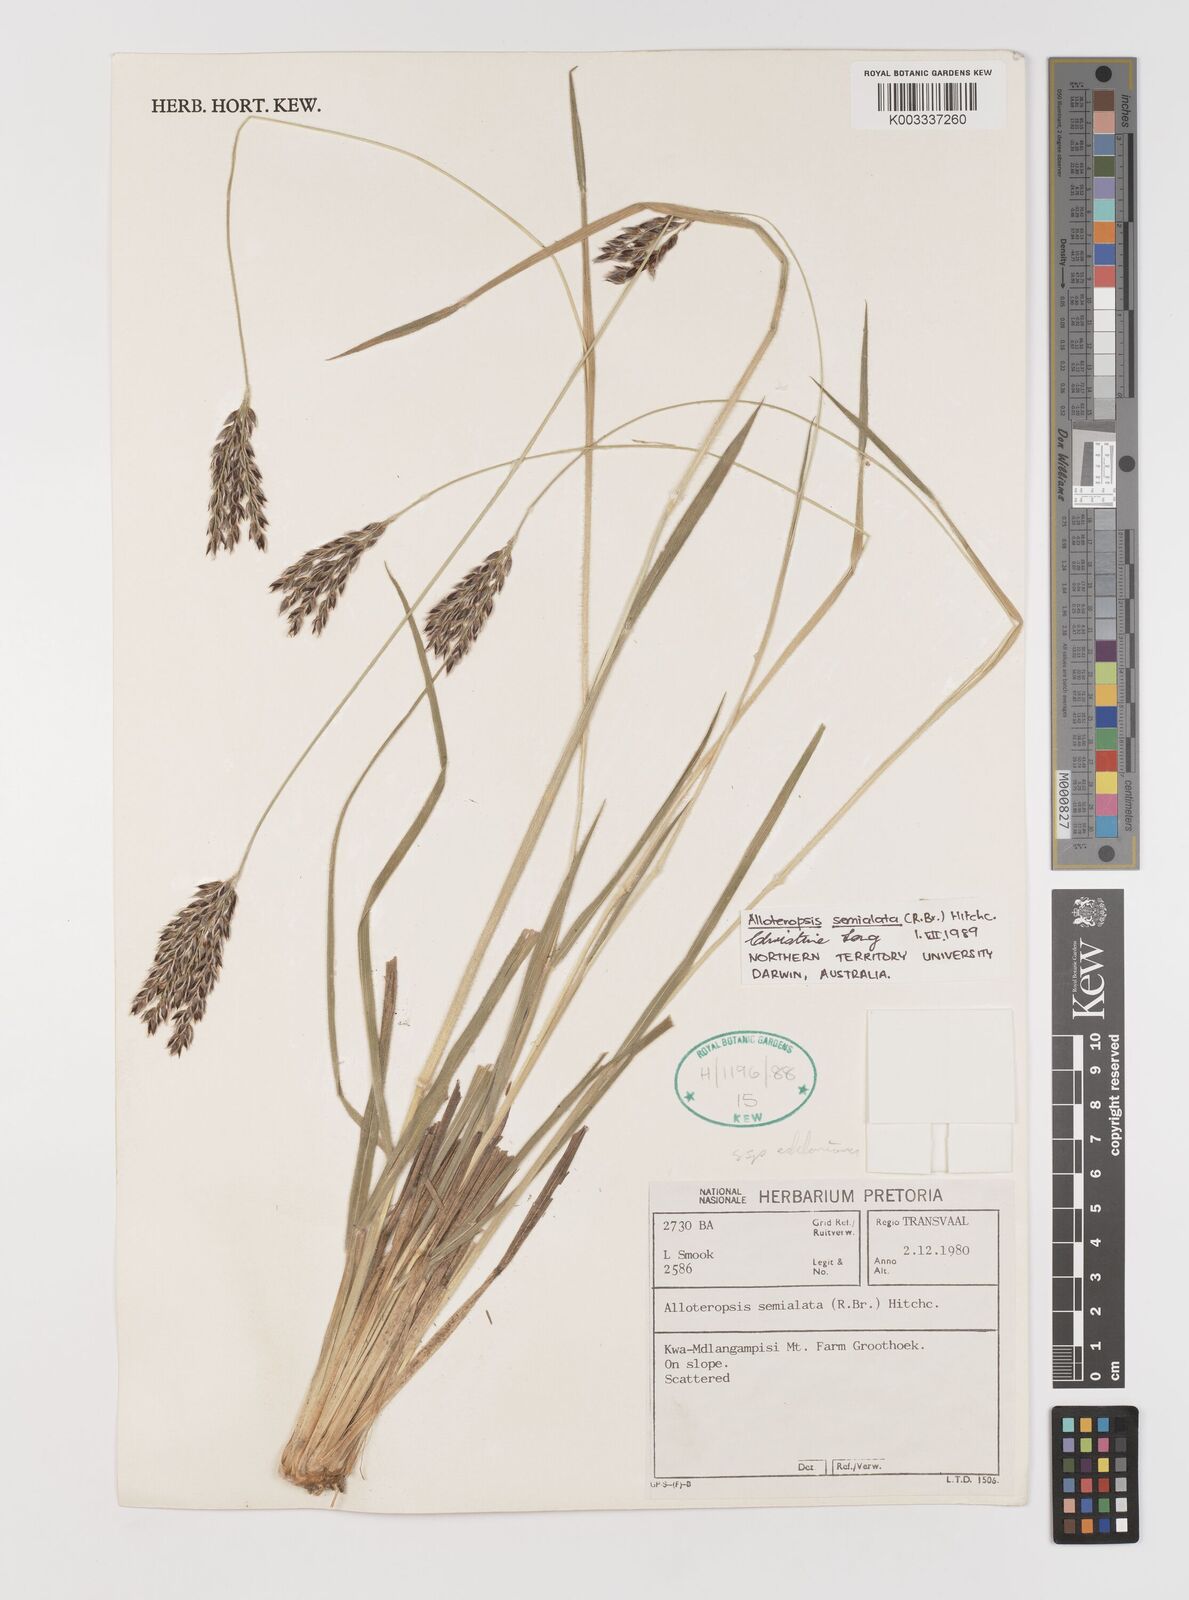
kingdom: Plantae
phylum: Tracheophyta
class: Liliopsida
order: Poales
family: Poaceae
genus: Alloteropsis
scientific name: Alloteropsis semialata
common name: Cockatoo grass
